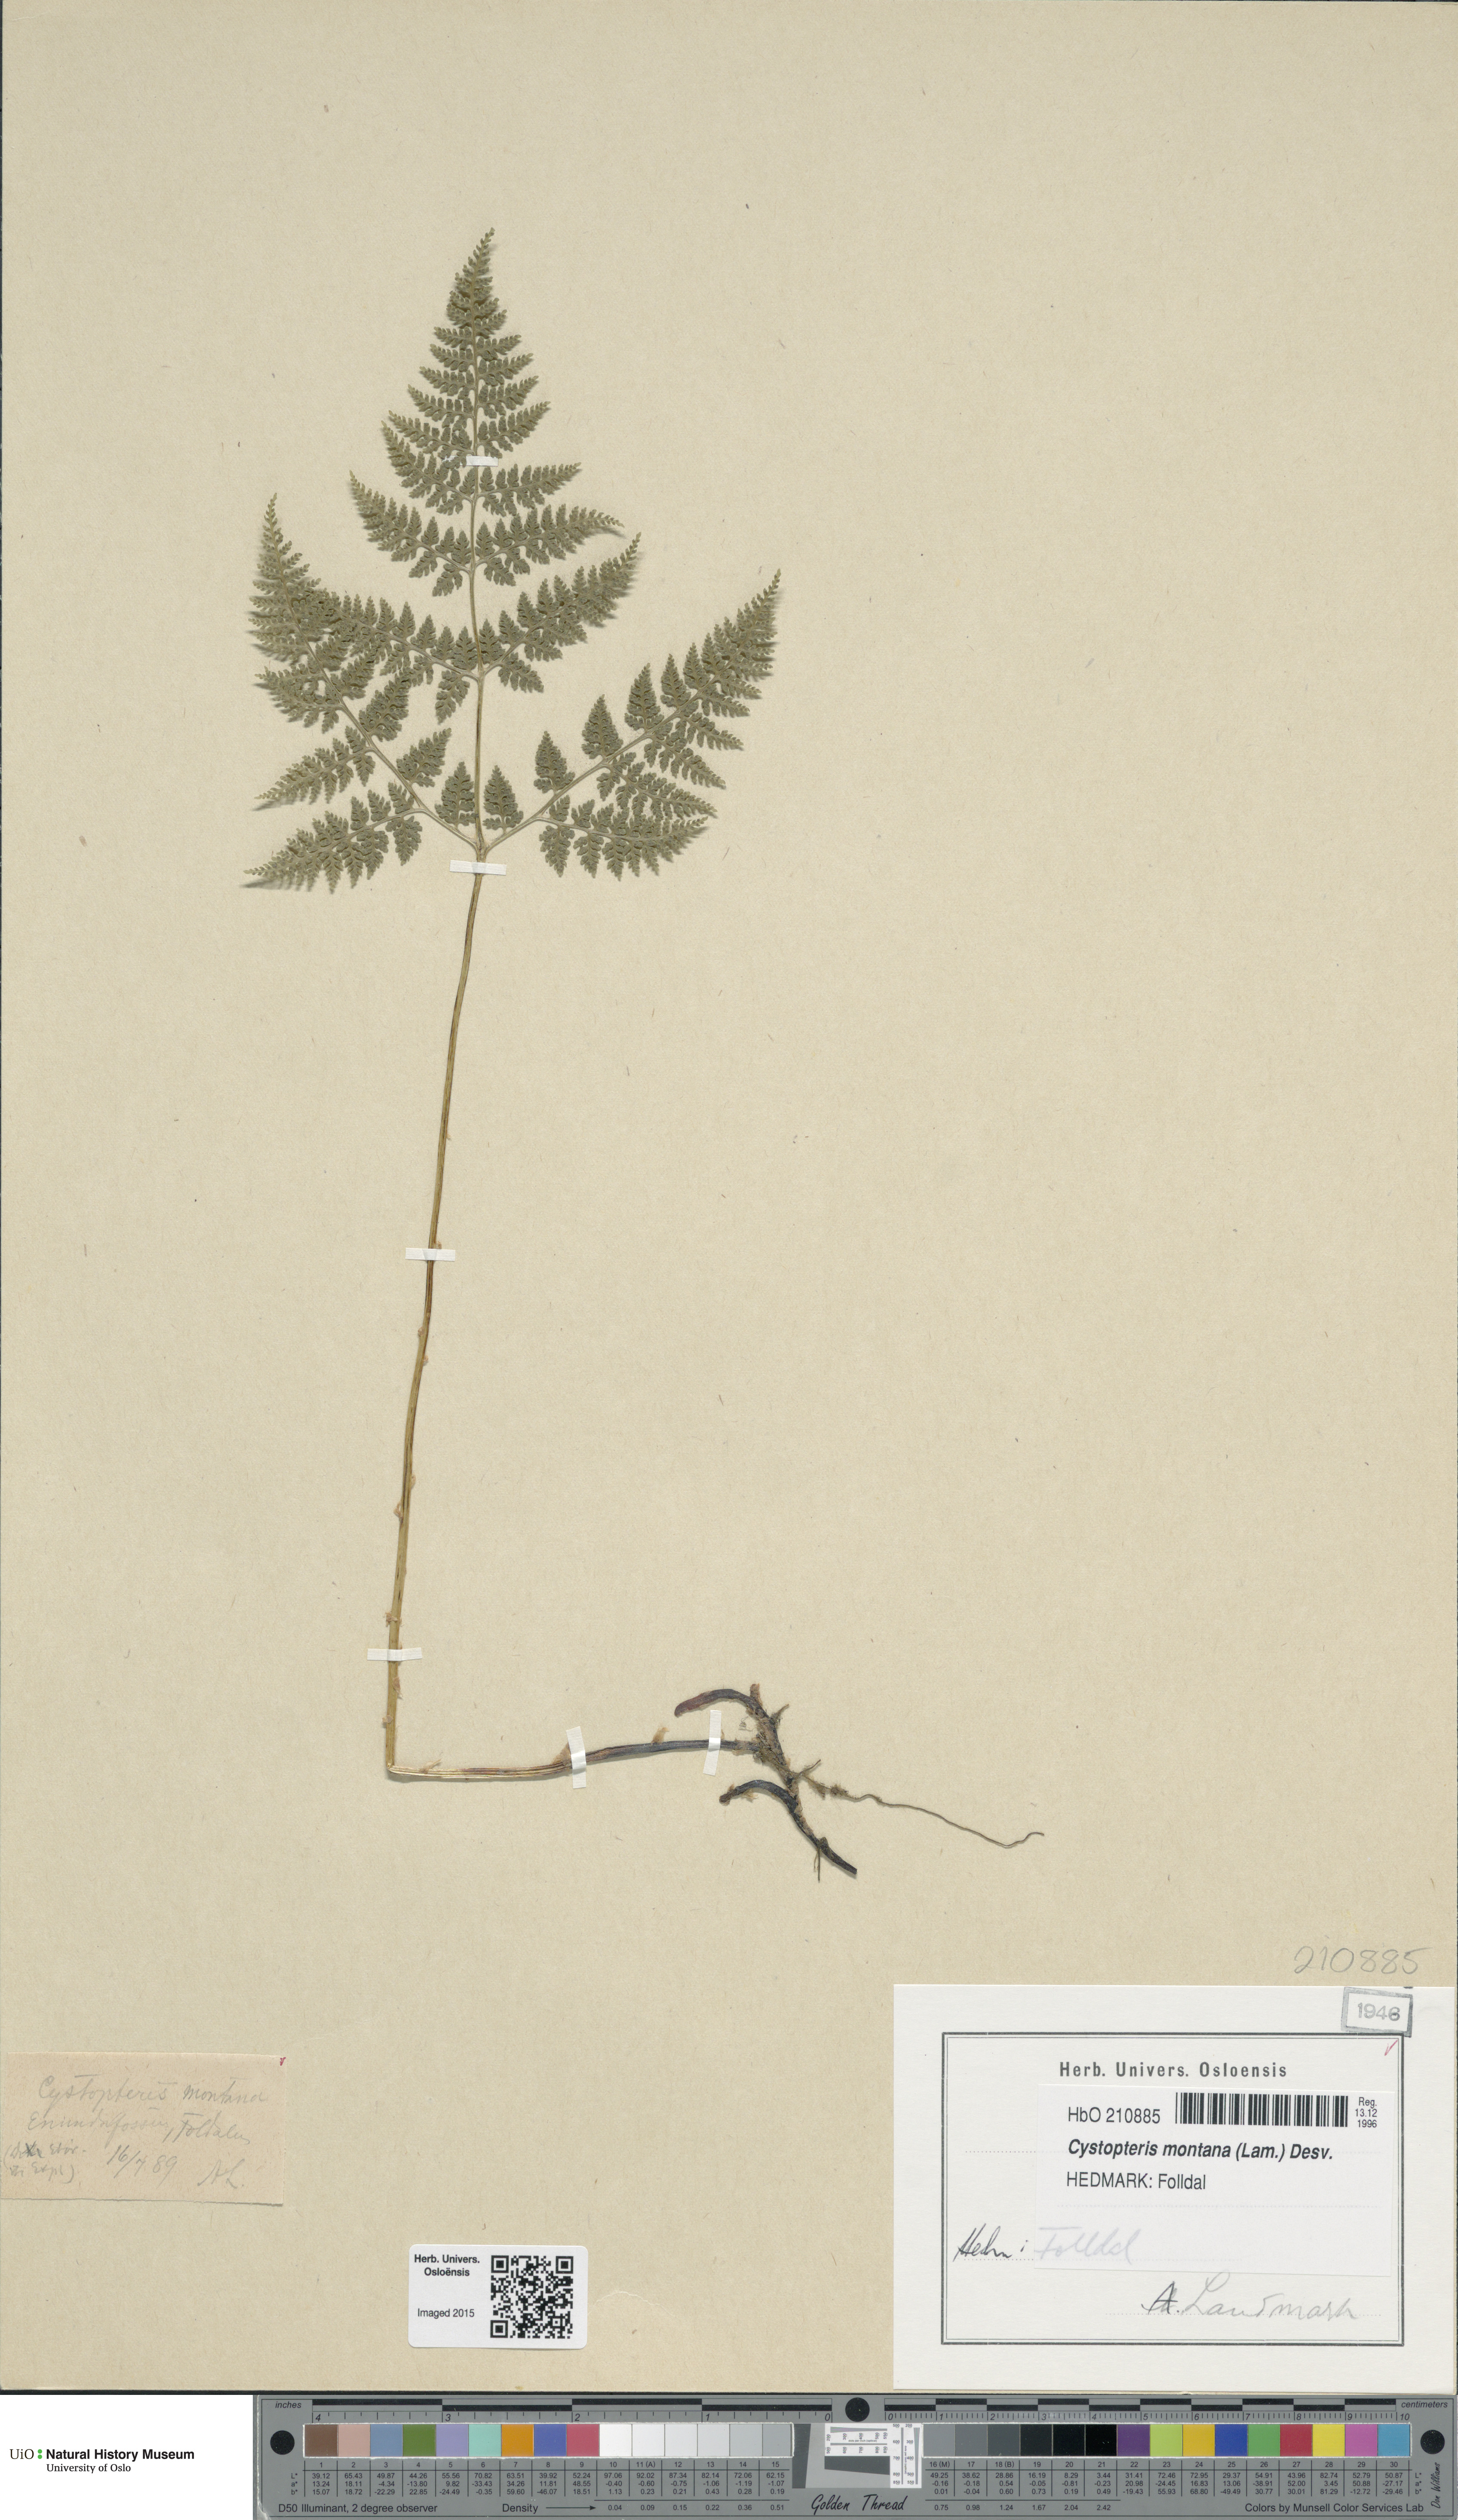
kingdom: Plantae
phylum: Tracheophyta
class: Polypodiopsida
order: Polypodiales
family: Cystopteridaceae
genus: Cystopteris
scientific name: Cystopteris montana
